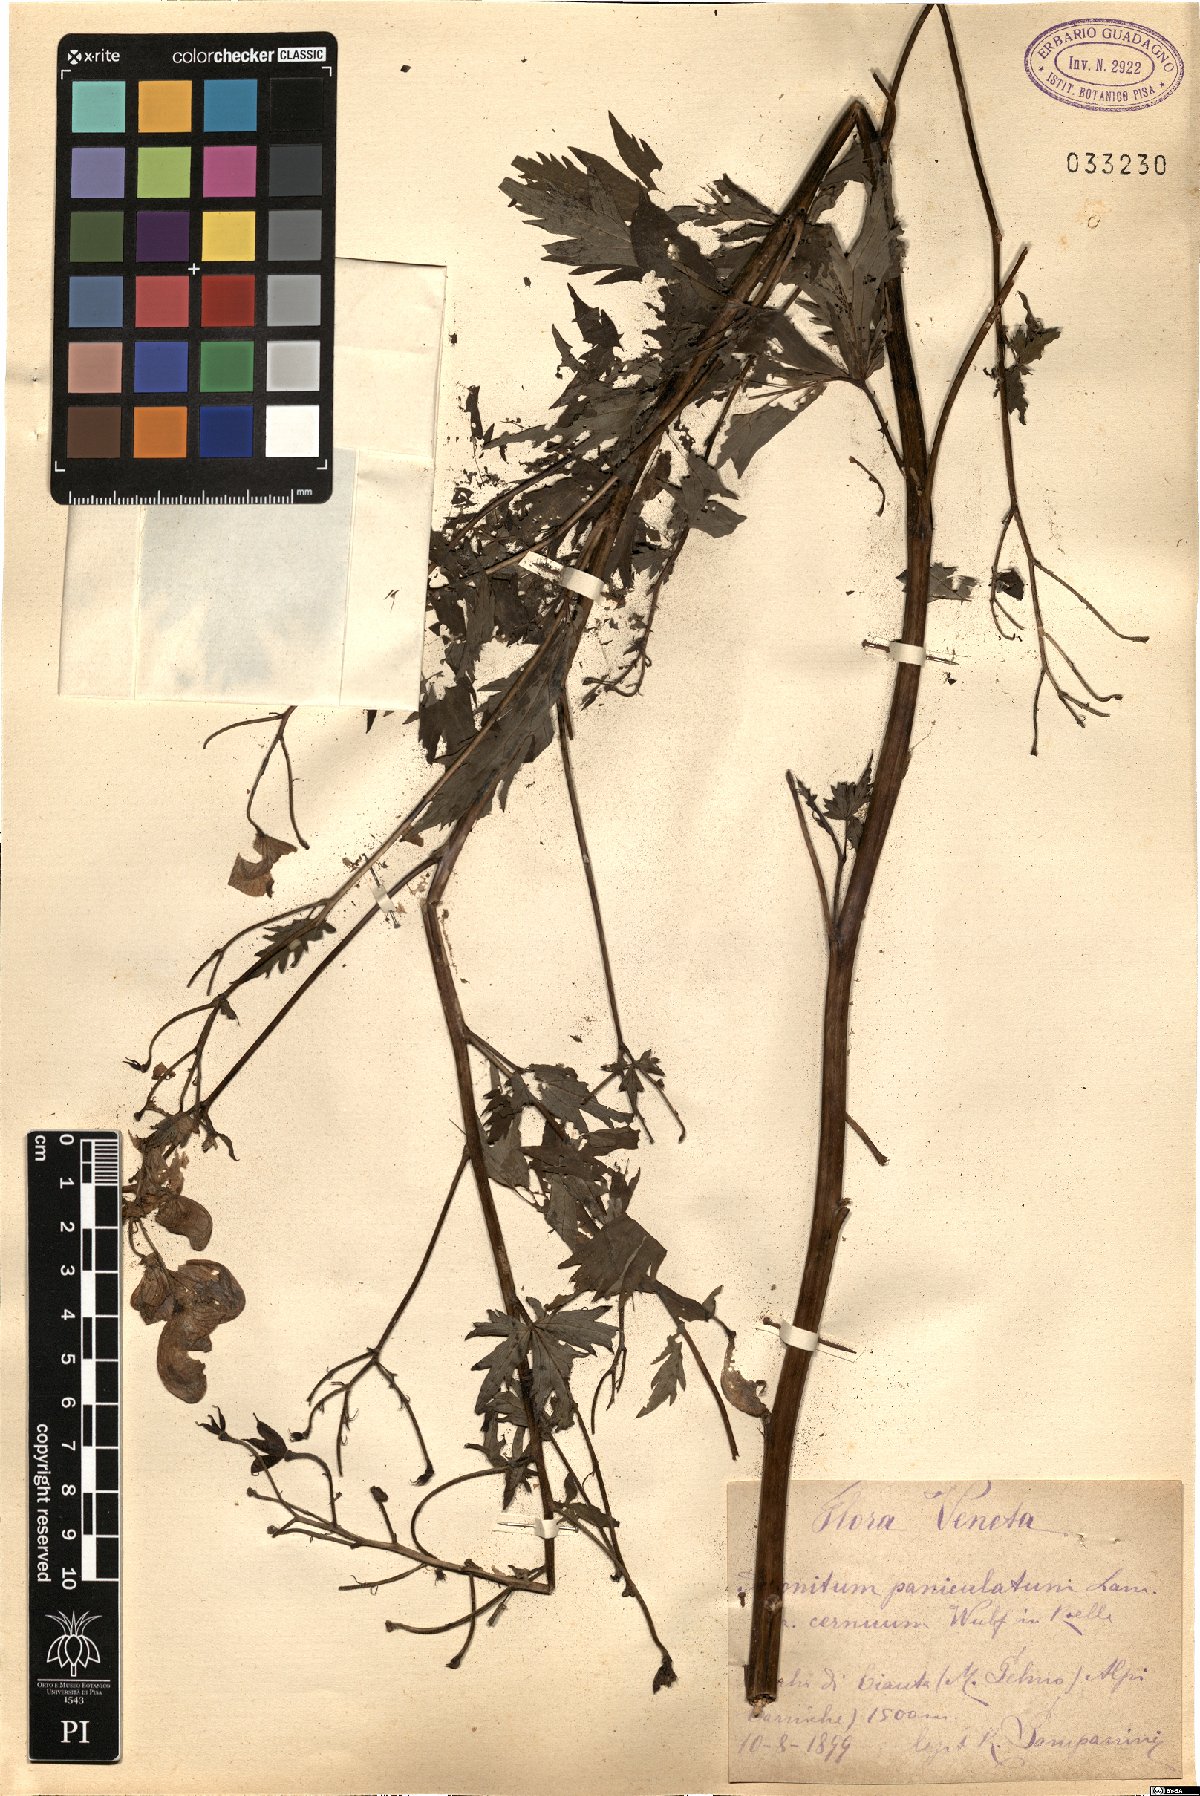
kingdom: Plantae
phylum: Tracheophyta
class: Magnoliopsida
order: Ranunculales
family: Ranunculaceae
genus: Aconitum
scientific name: Aconitum degenii
